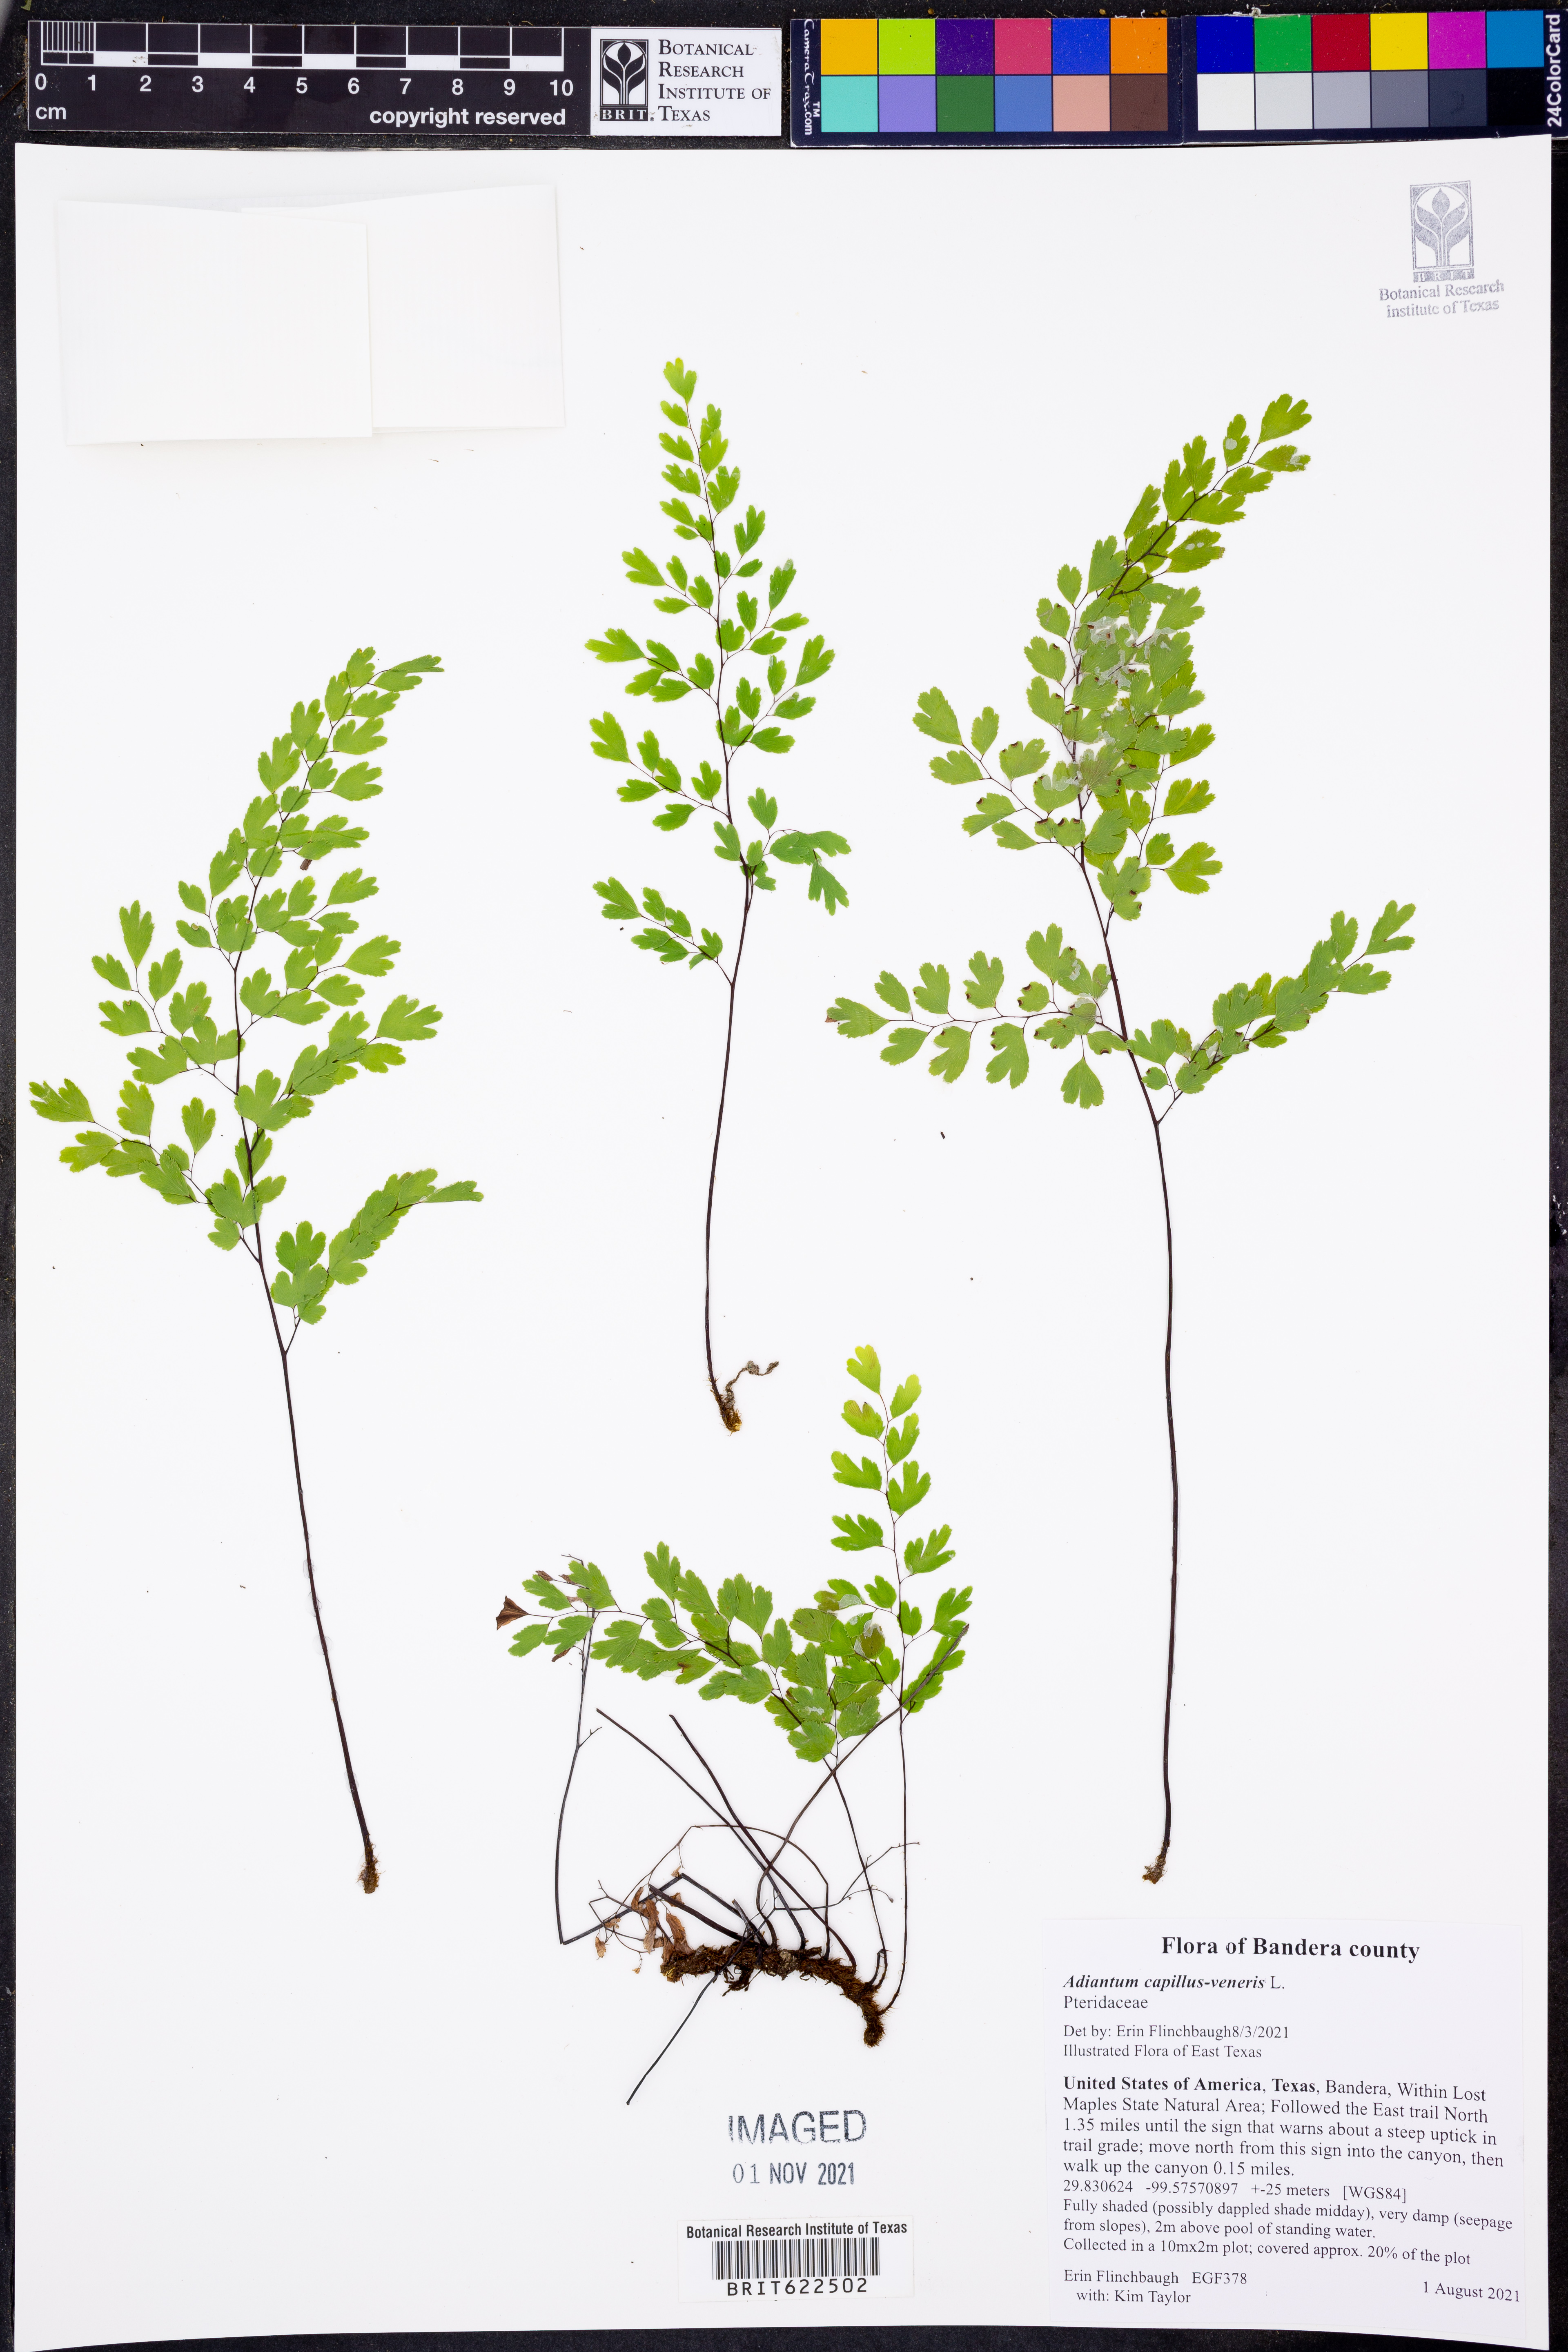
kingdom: Plantae
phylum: Tracheophyta
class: Polypodiopsida
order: Polypodiales
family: Pteridaceae
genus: Adiantum
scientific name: Adiantum capillus-veneris
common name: Maidenhair fern
